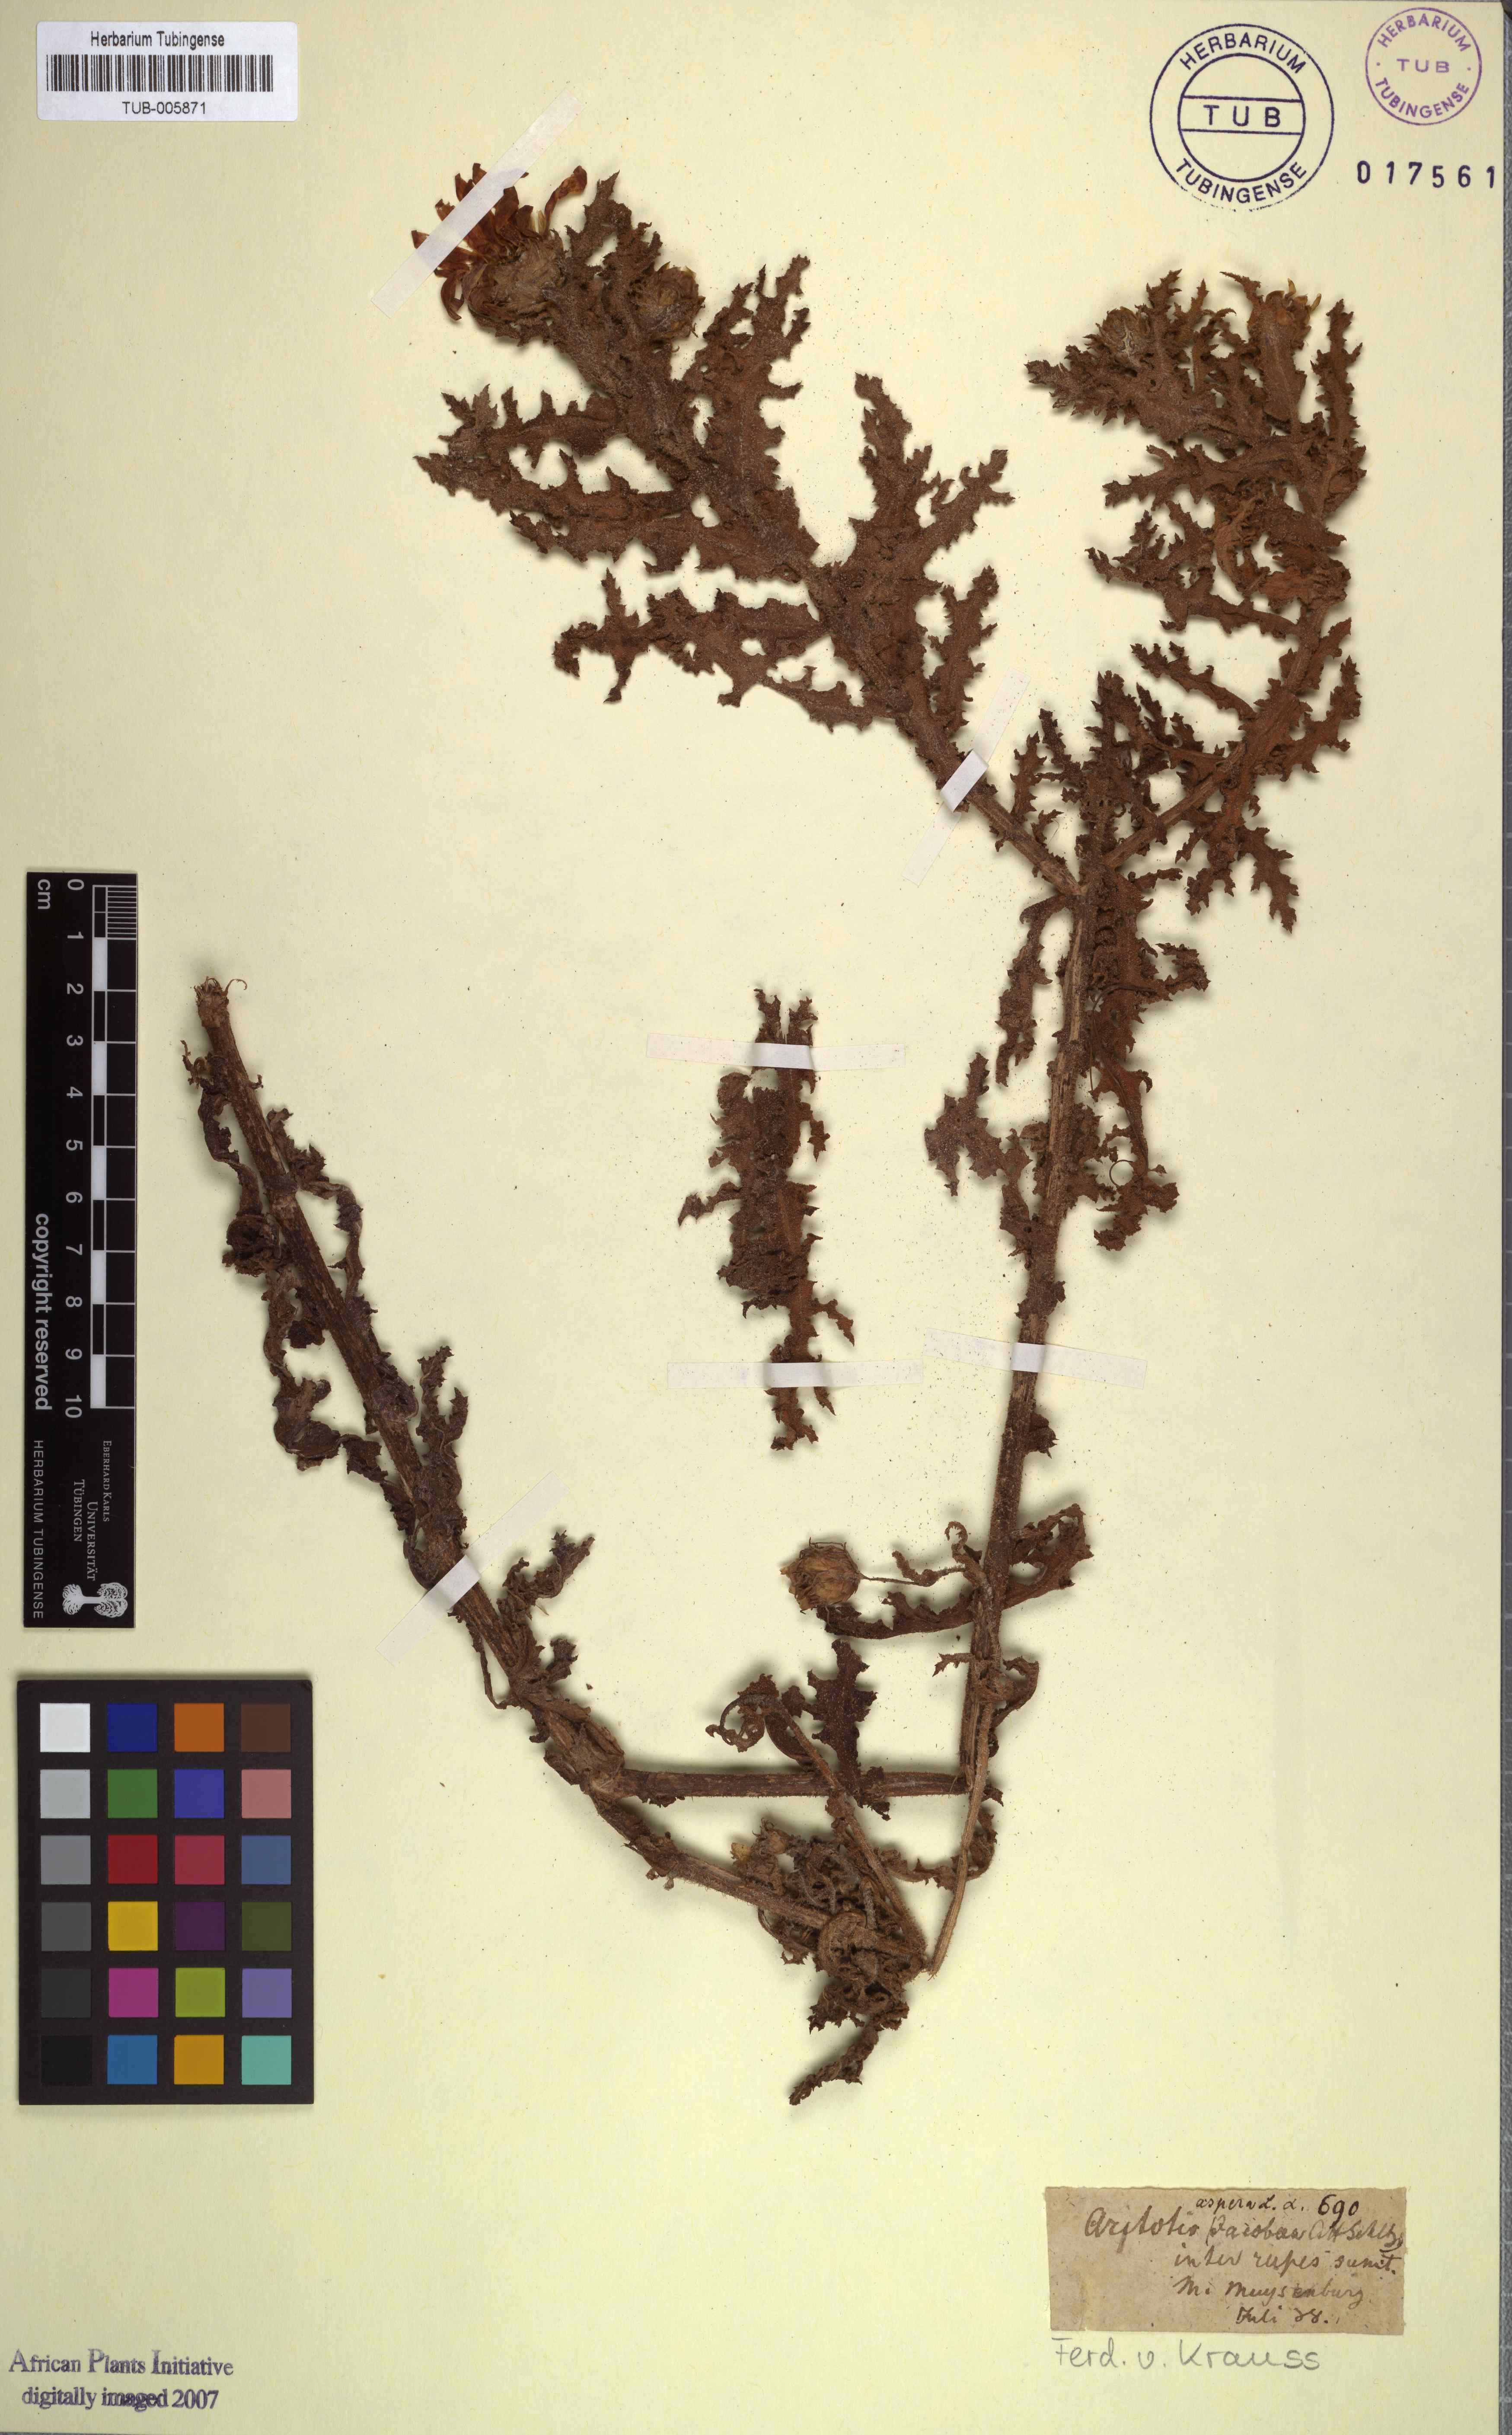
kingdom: Plantae
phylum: Tracheophyta
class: Magnoliopsida
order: Asterales
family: Asteraceae
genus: Arctotis
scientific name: Arctotis aspera
